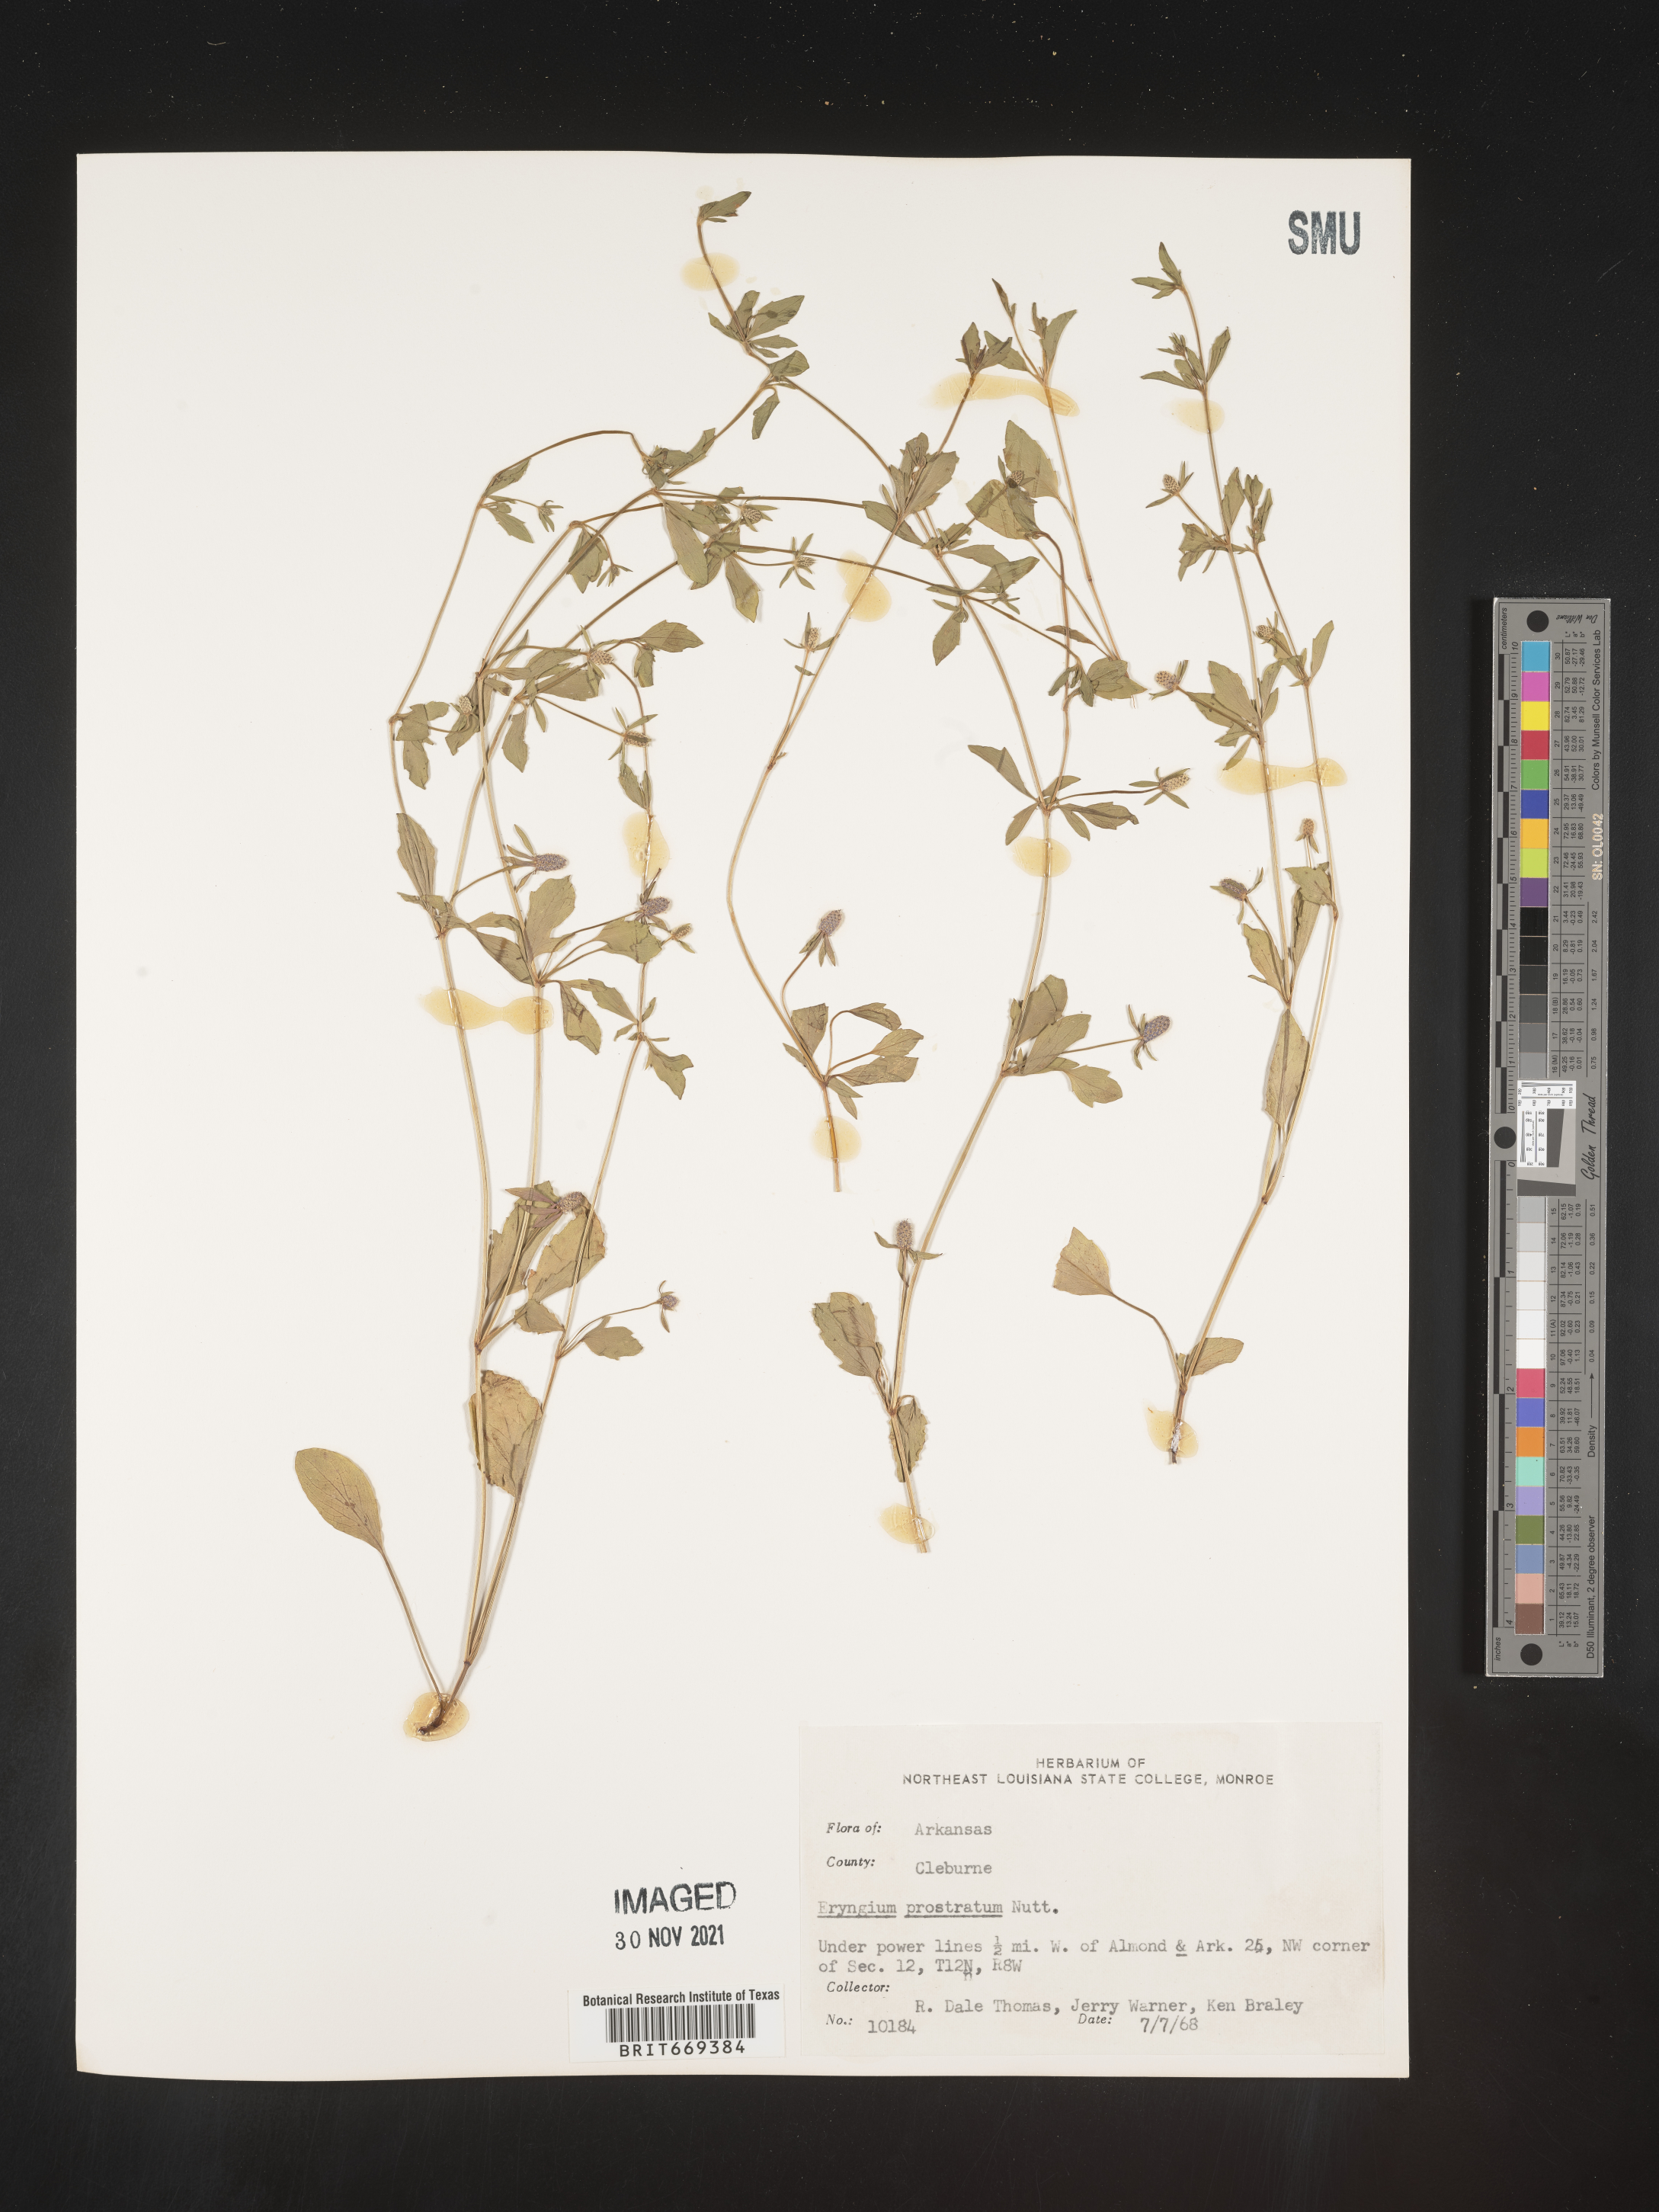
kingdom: Plantae
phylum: Tracheophyta
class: Magnoliopsida
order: Apiales
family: Apiaceae
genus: Eryngium
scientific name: Eryngium prostratum
